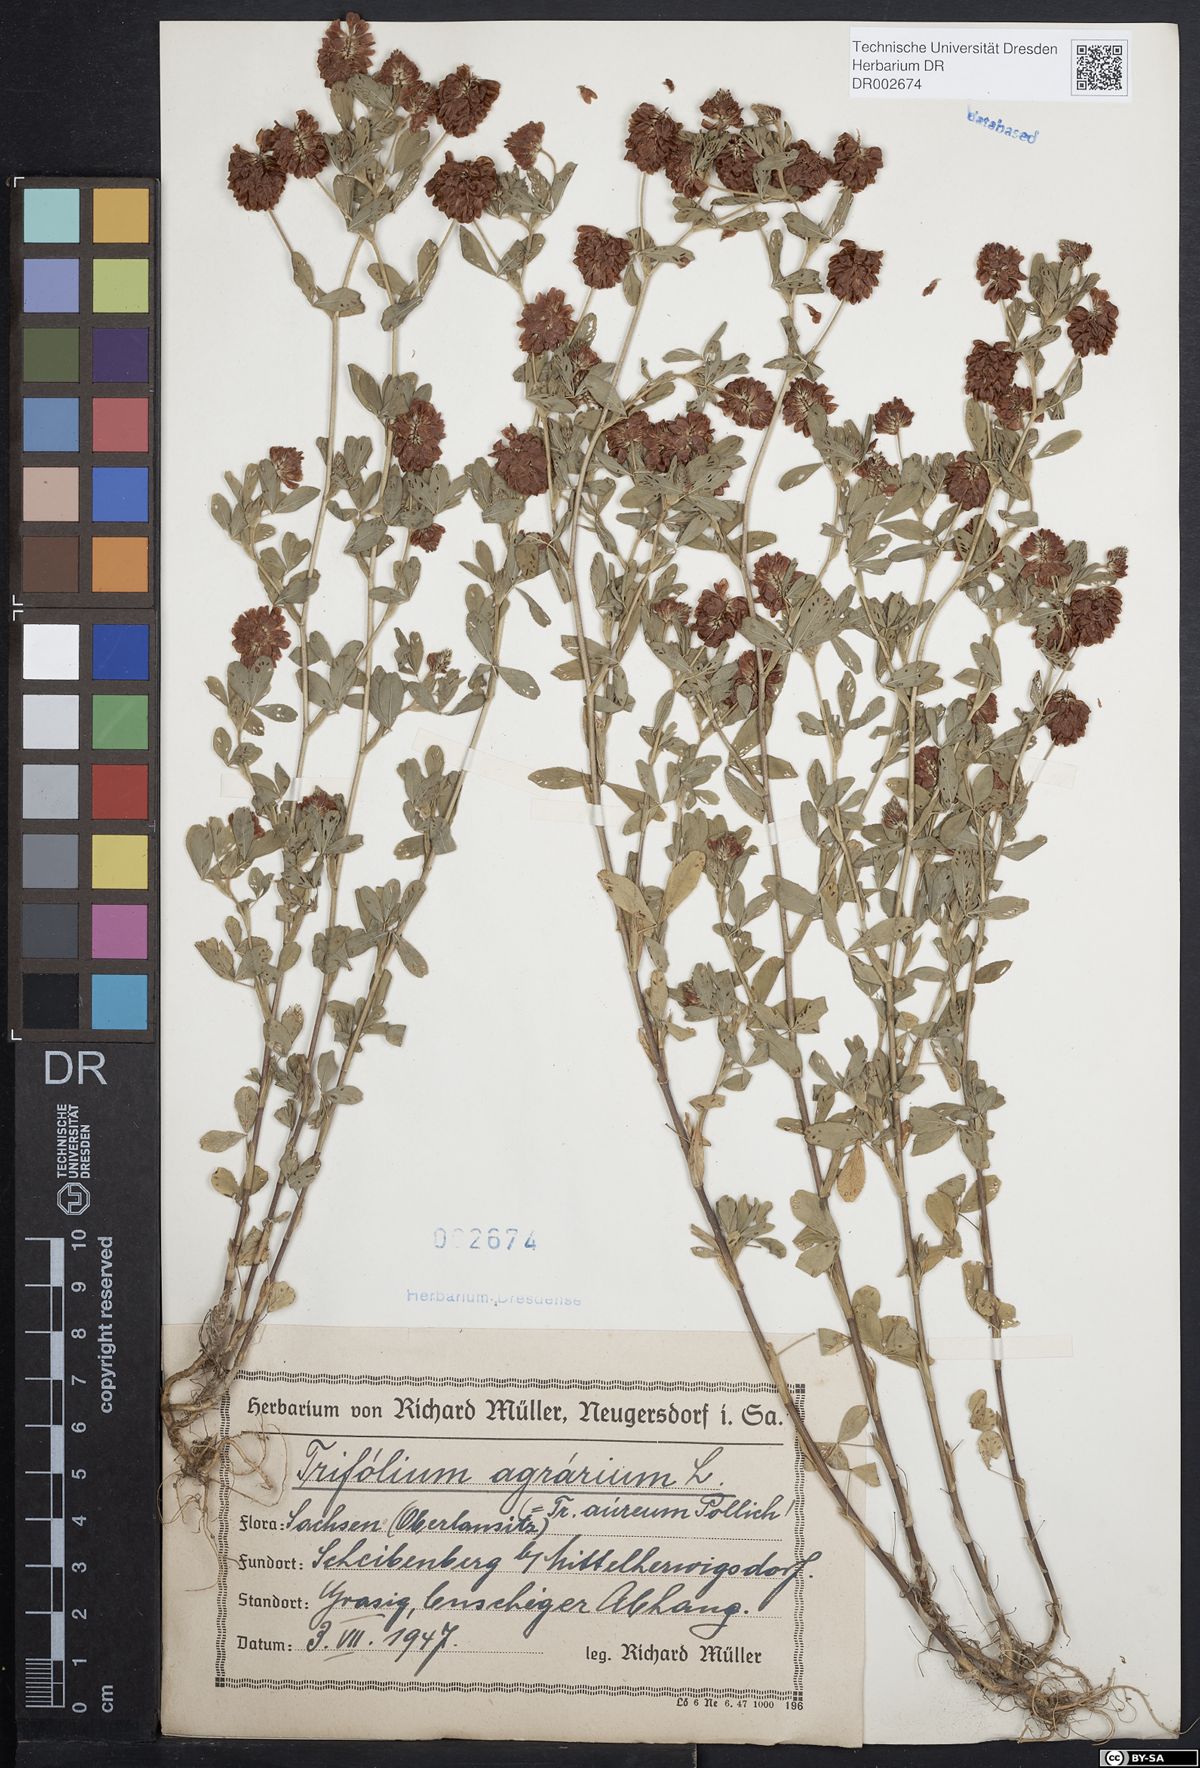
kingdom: Plantae
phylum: Tracheophyta
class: Magnoliopsida
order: Fabales
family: Fabaceae
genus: Trifolium
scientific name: Trifolium aureum
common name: Golden clover
